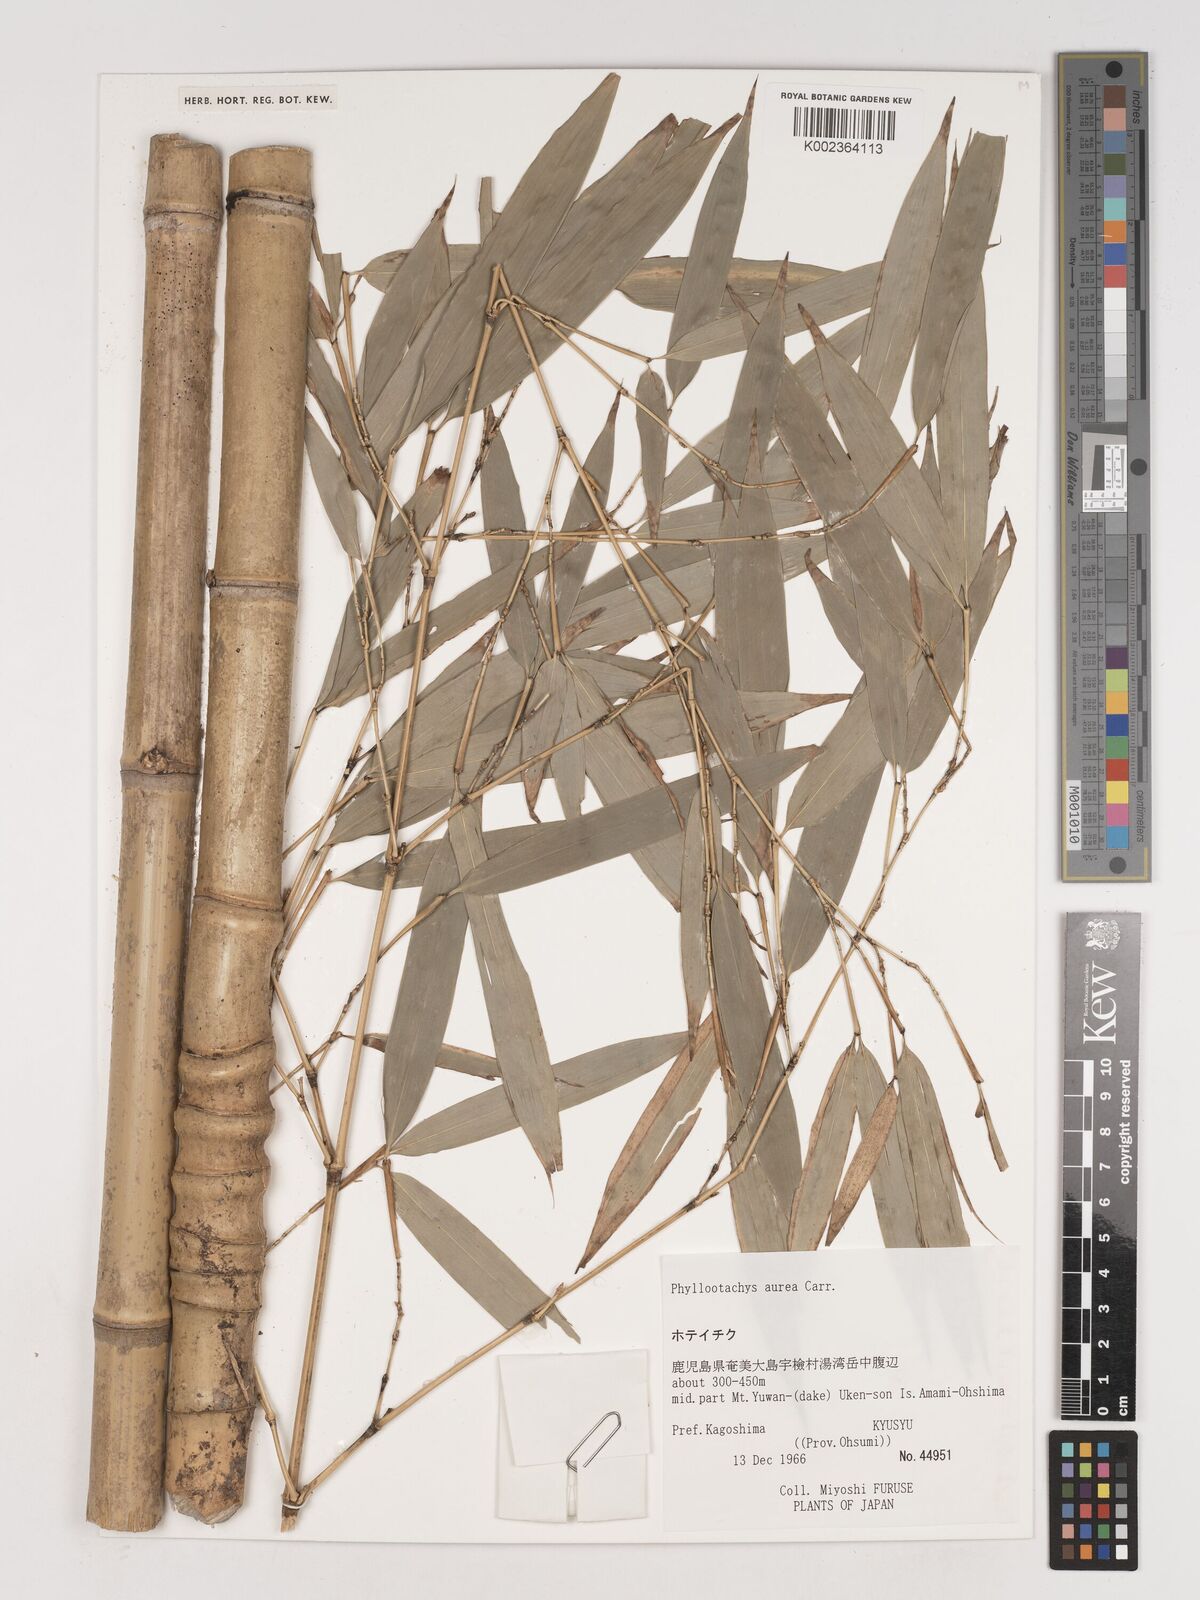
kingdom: Plantae
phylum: Tracheophyta
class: Liliopsida
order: Poales
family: Poaceae
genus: Phyllostachys
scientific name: Phyllostachys aurea
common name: Golden bamboo
